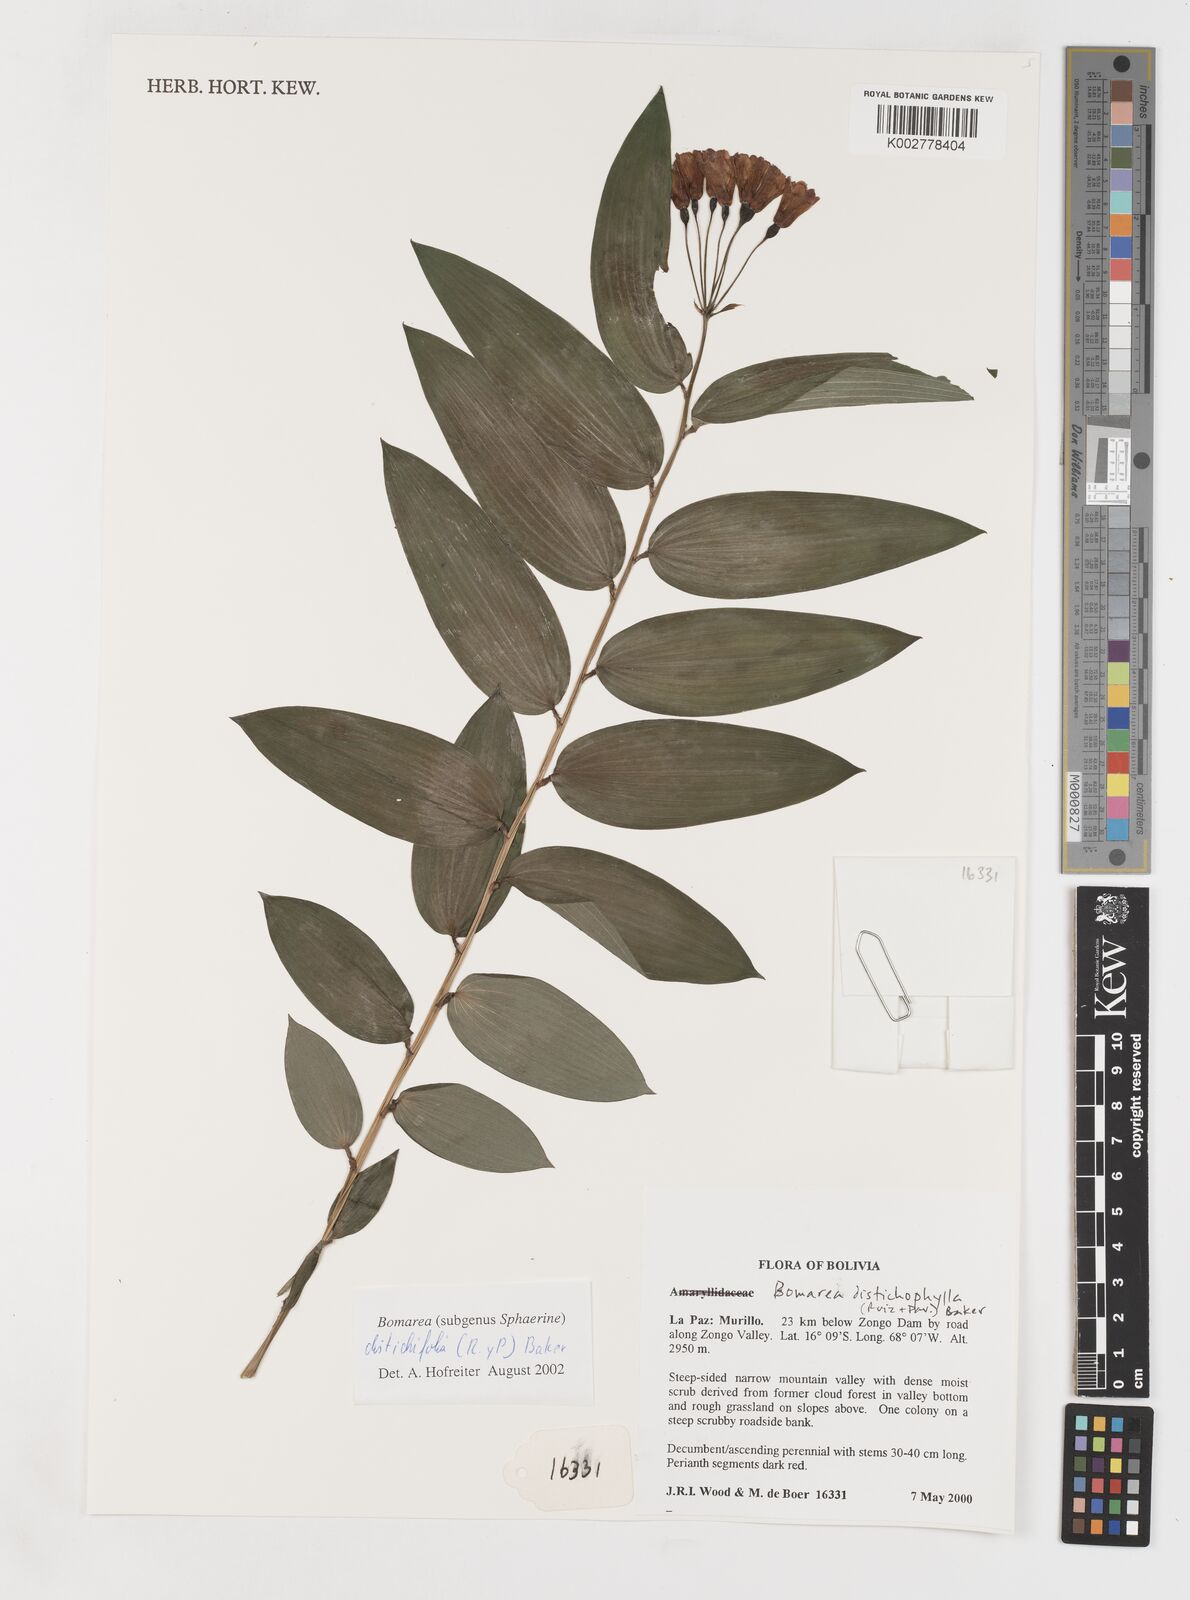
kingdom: Plantae
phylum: Tracheophyta
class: Liliopsida
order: Liliales
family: Alstroemeriaceae
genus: Bomarea
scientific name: Bomarea distichifolia
